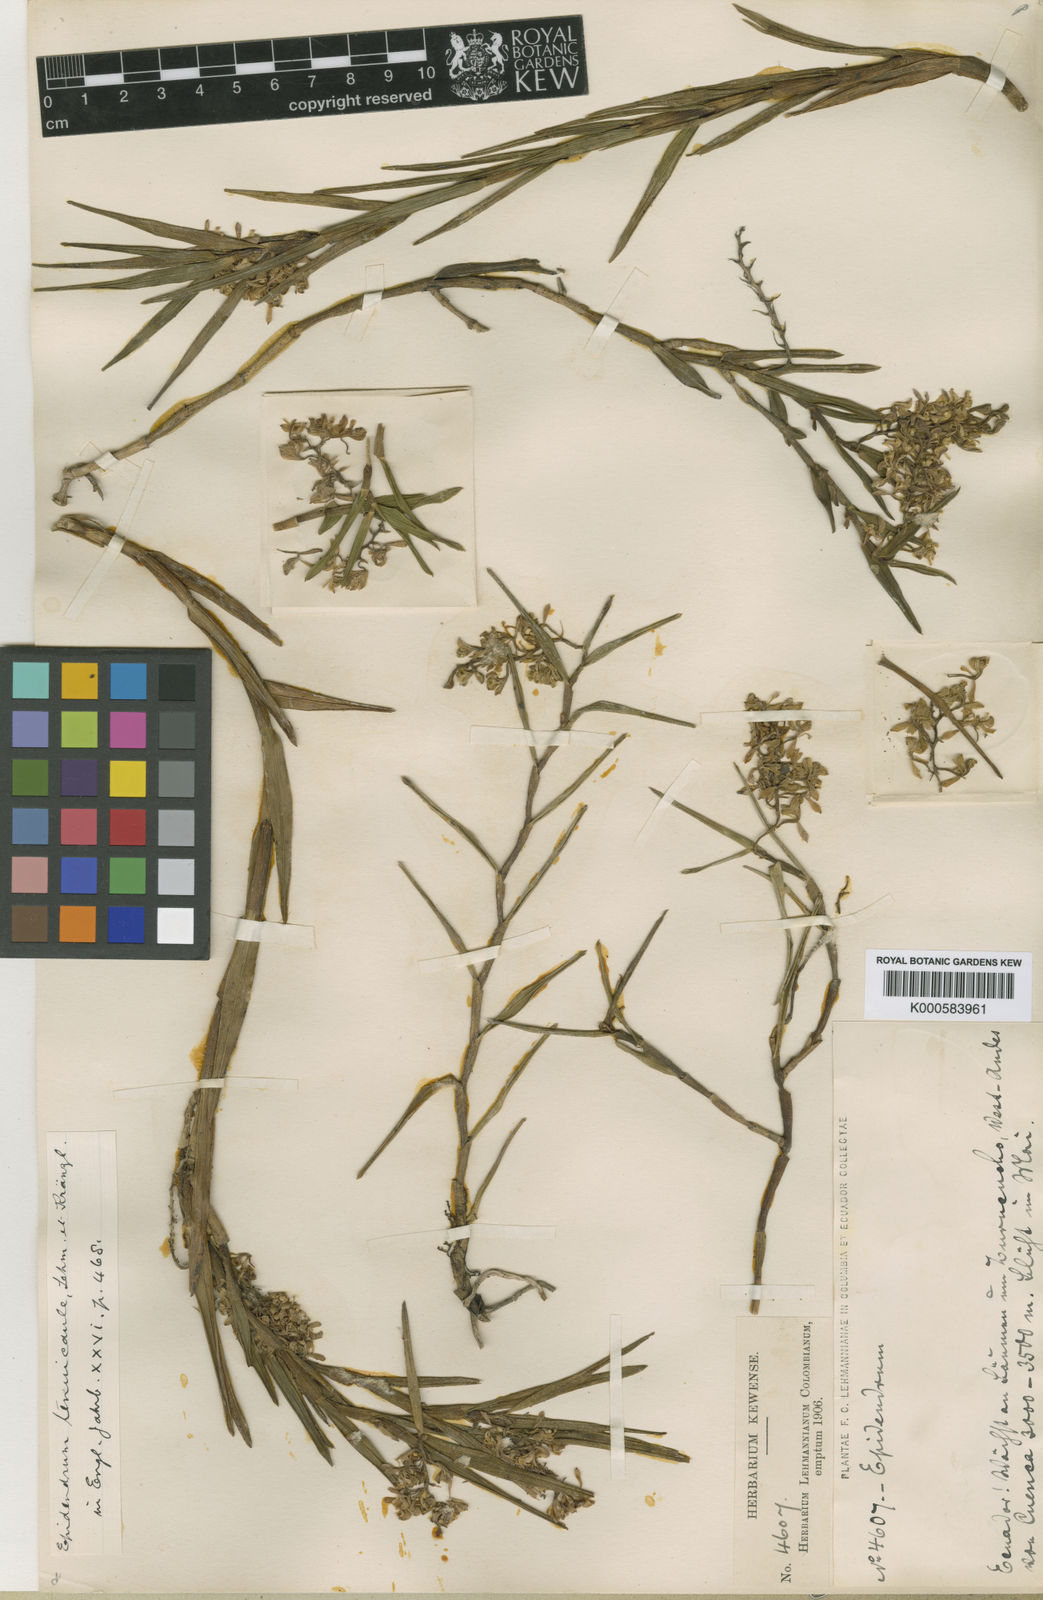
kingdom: Plantae
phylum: Tracheophyta
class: Liliopsida
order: Asparagales
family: Orchidaceae
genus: Epidendrum
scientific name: Epidendrum tenuicaule
